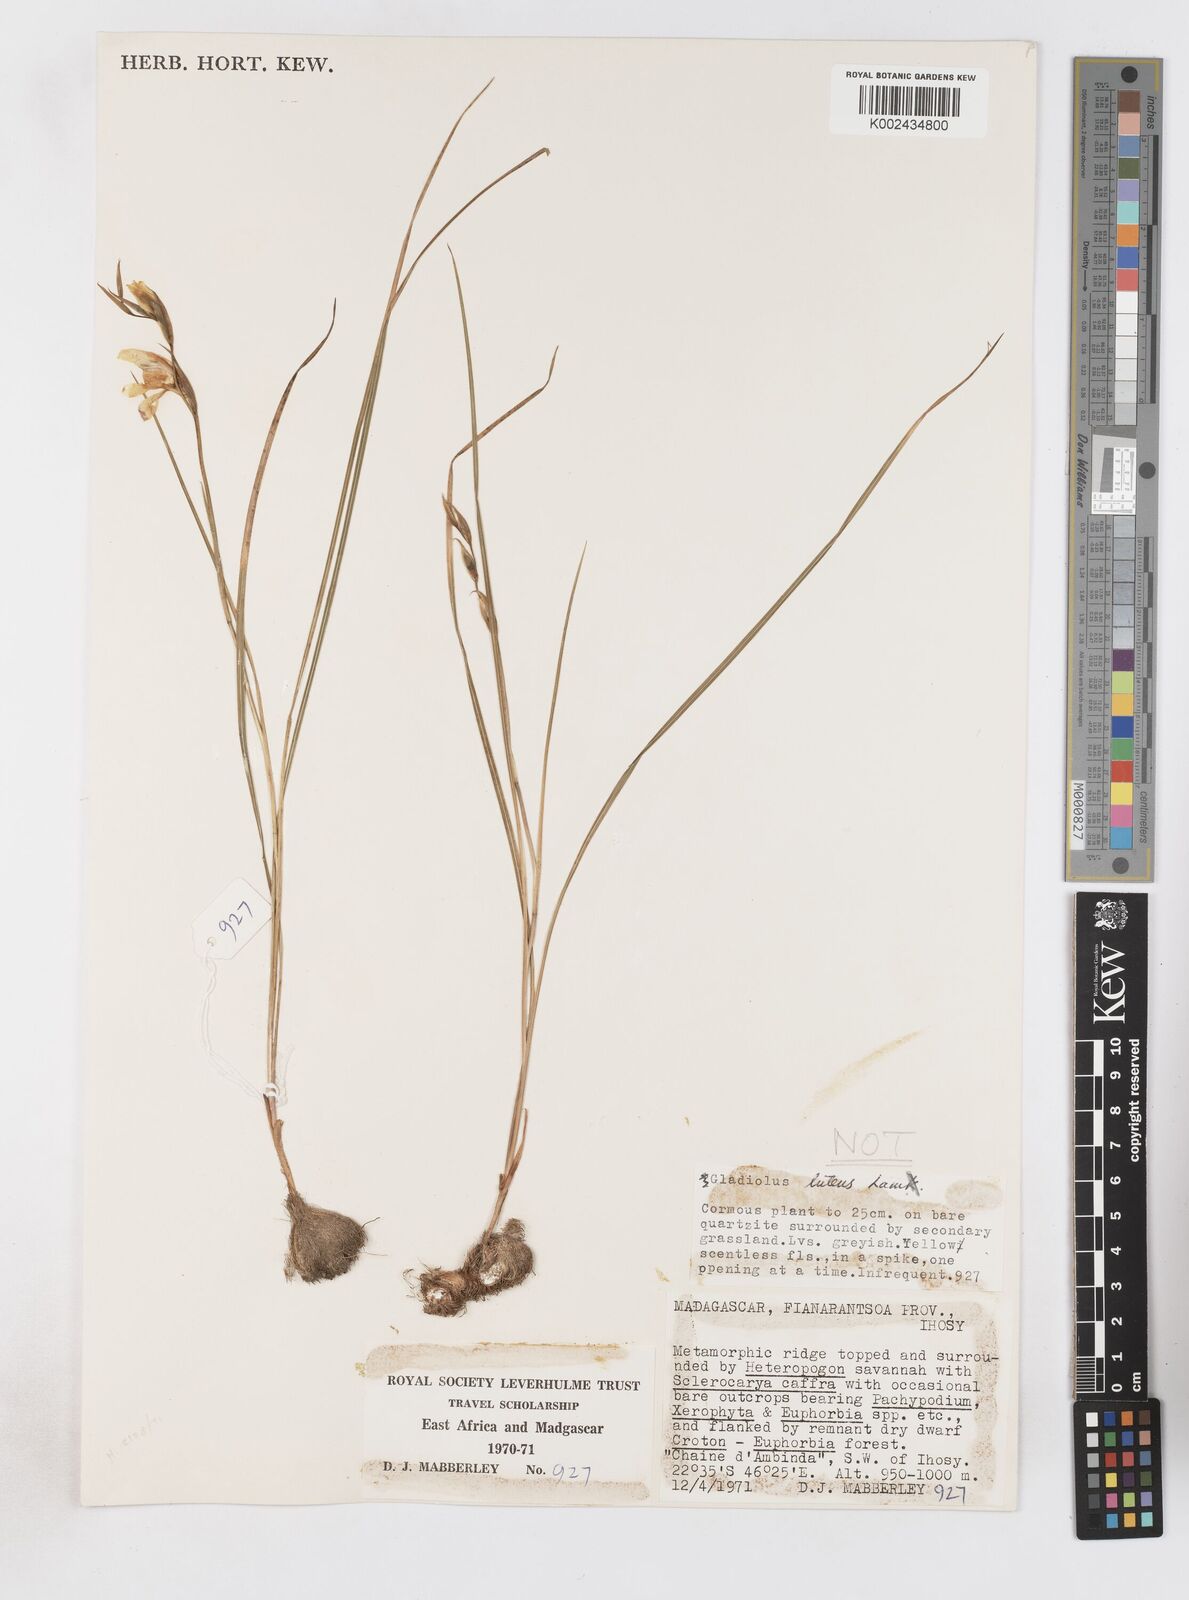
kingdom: Plantae
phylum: Tracheophyta
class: Liliopsida
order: Asparagales
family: Iridaceae
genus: Gladiolus
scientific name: Gladiolus
